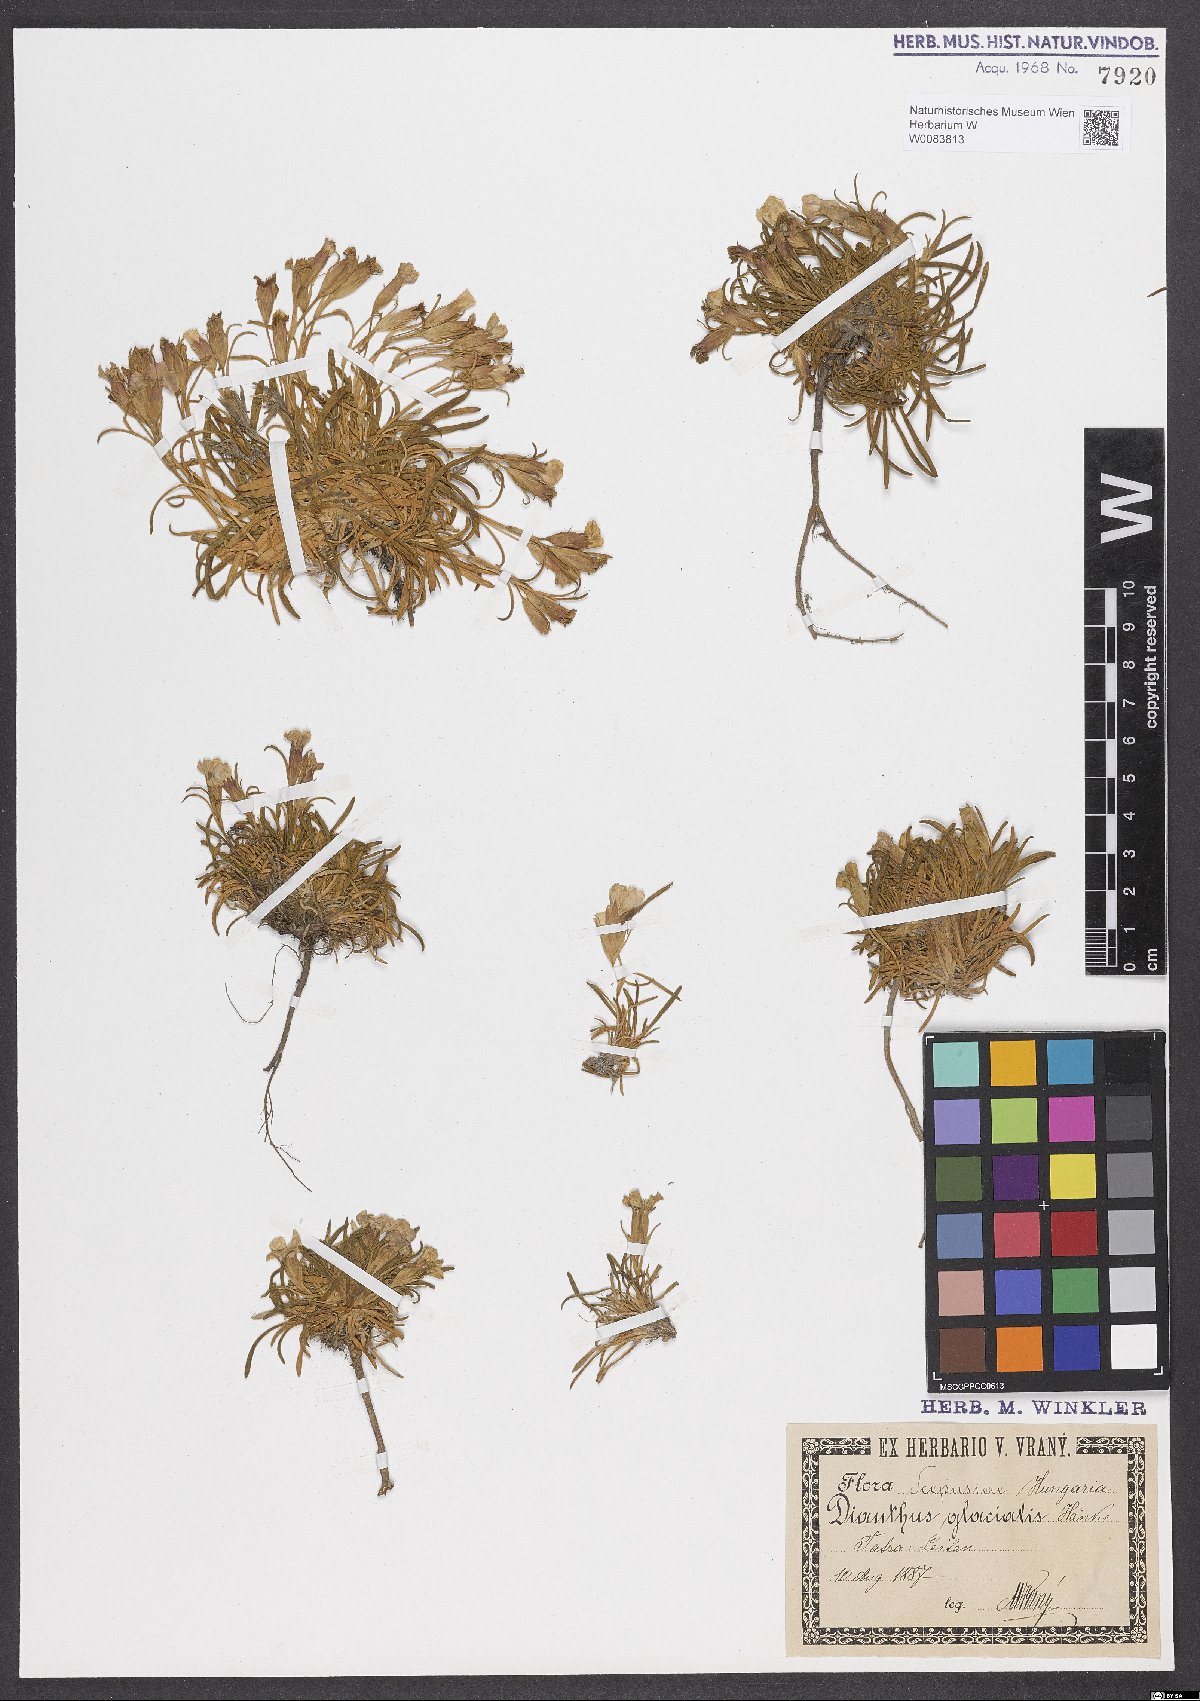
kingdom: Plantae
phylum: Tracheophyta
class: Magnoliopsida
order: Caryophyllales
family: Caryophyllaceae
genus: Dianthus
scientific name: Dianthus glacialis
